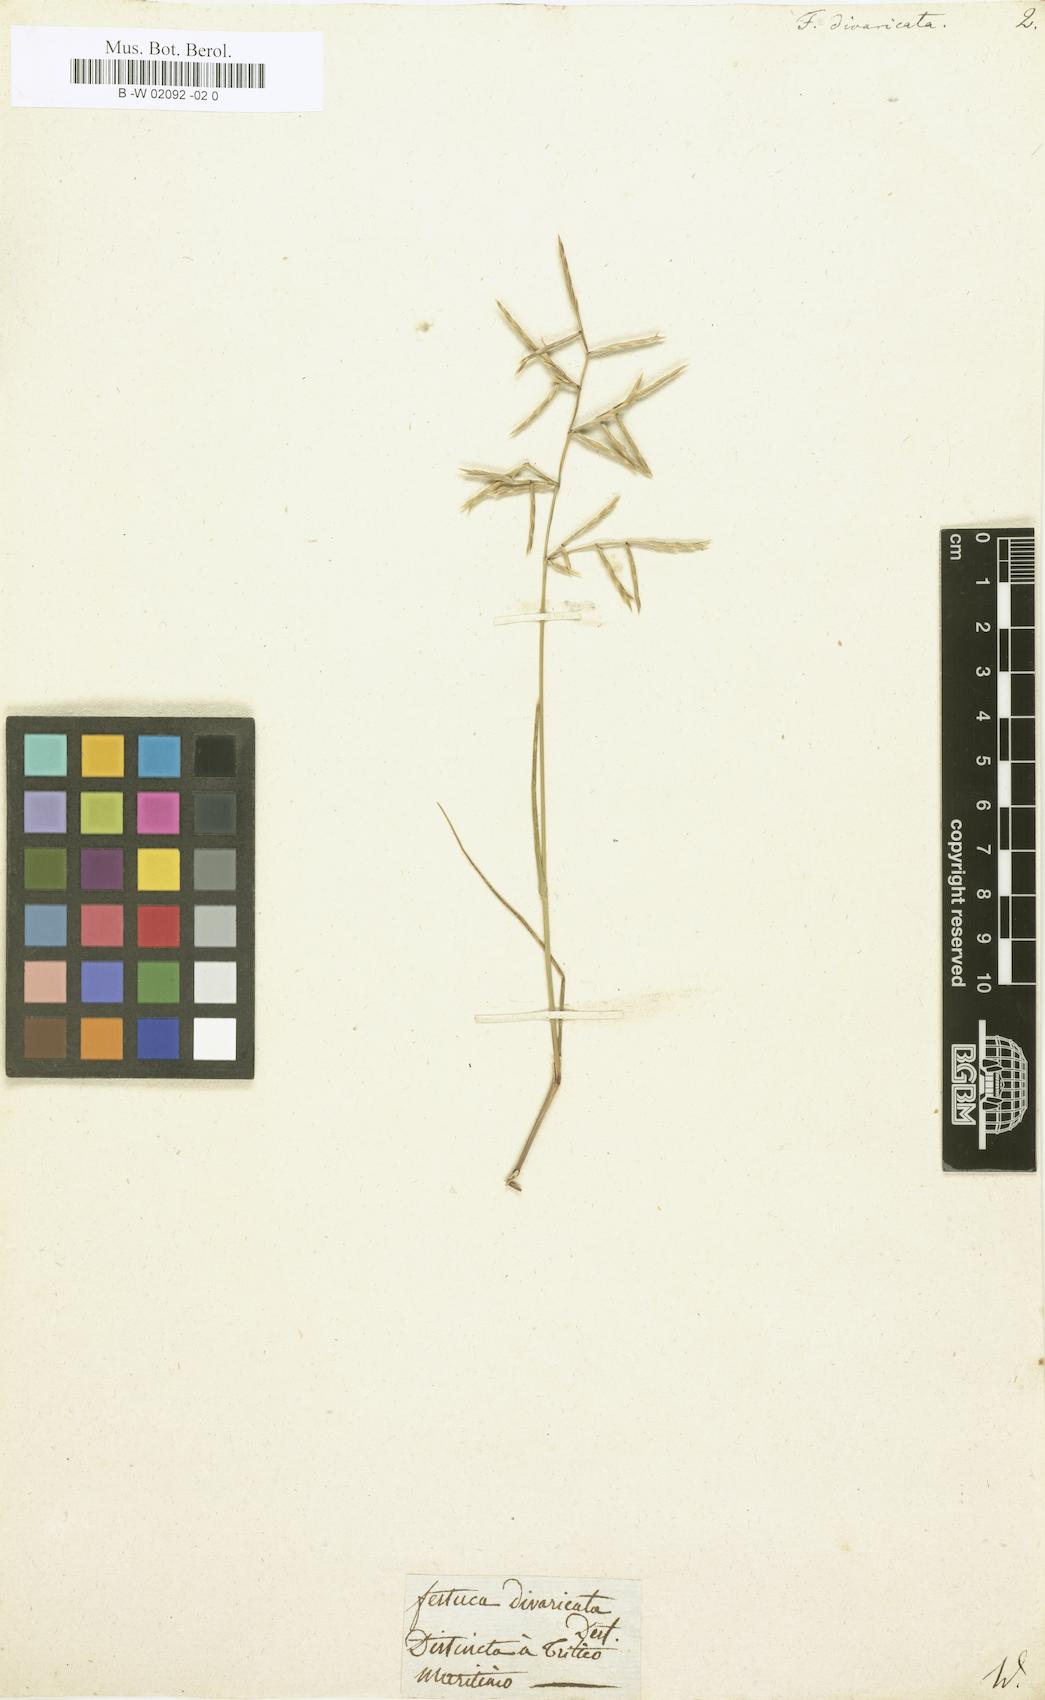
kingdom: Plantae
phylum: Tracheophyta
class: Liliopsida
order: Poales
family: Poaceae
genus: Festuca
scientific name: Festuca divaricata
